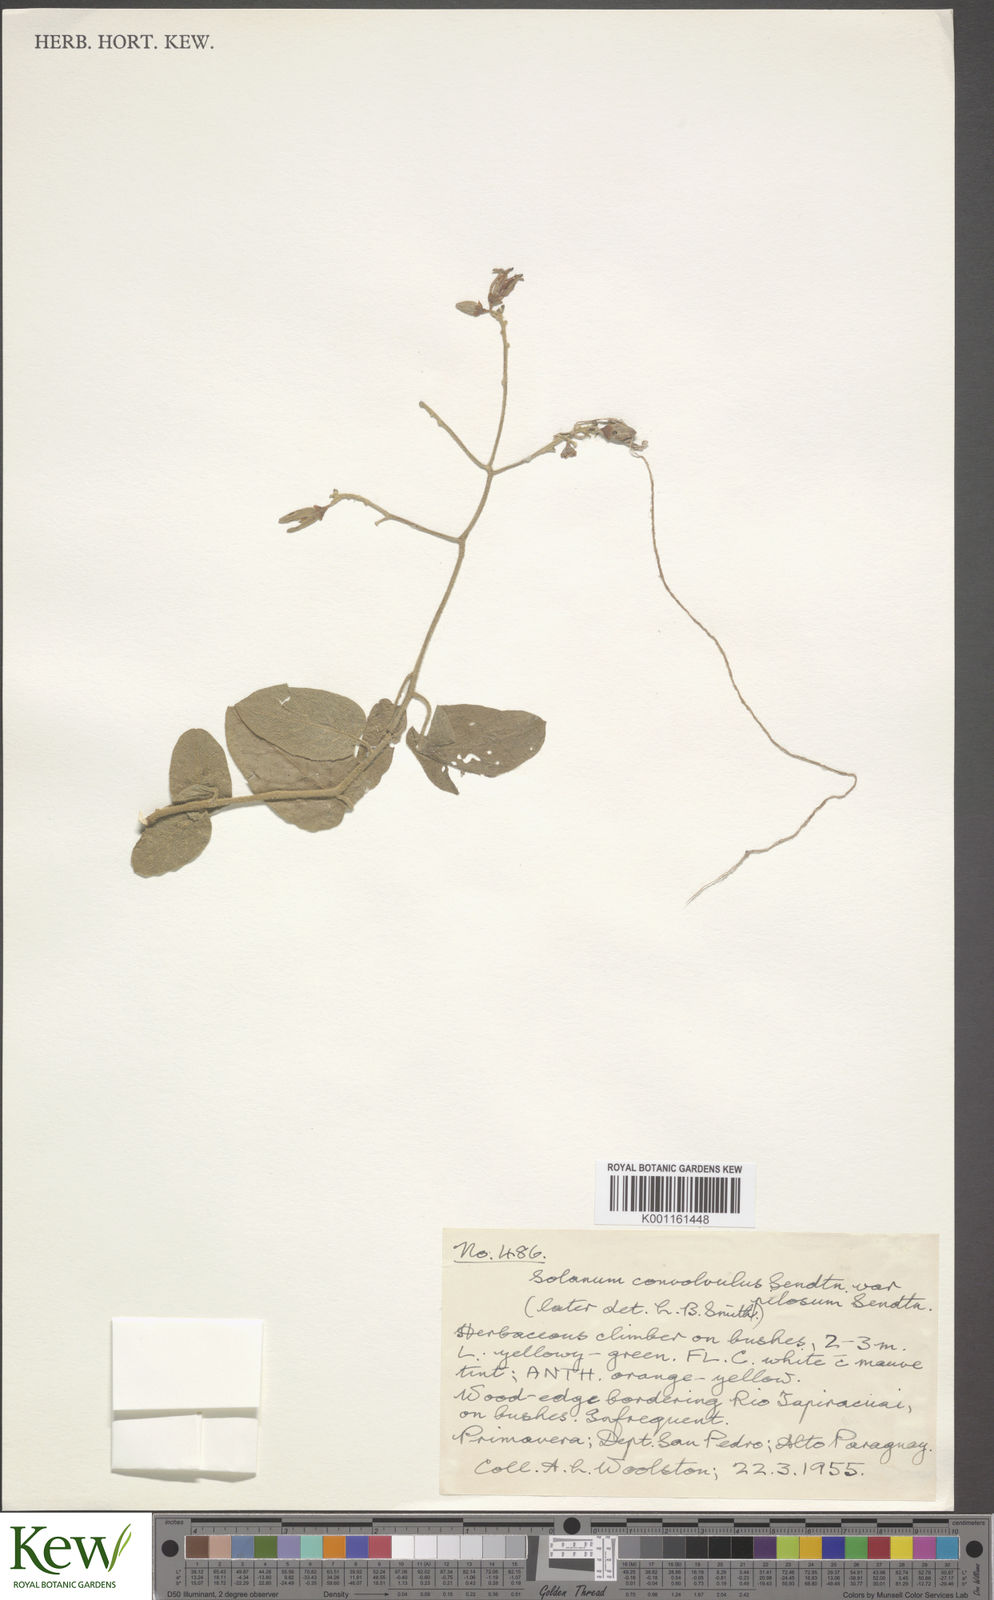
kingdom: Plantae
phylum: Tracheophyta
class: Magnoliopsida
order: Solanales
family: Solanaceae
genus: Solanum
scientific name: Solanum uncinellum
